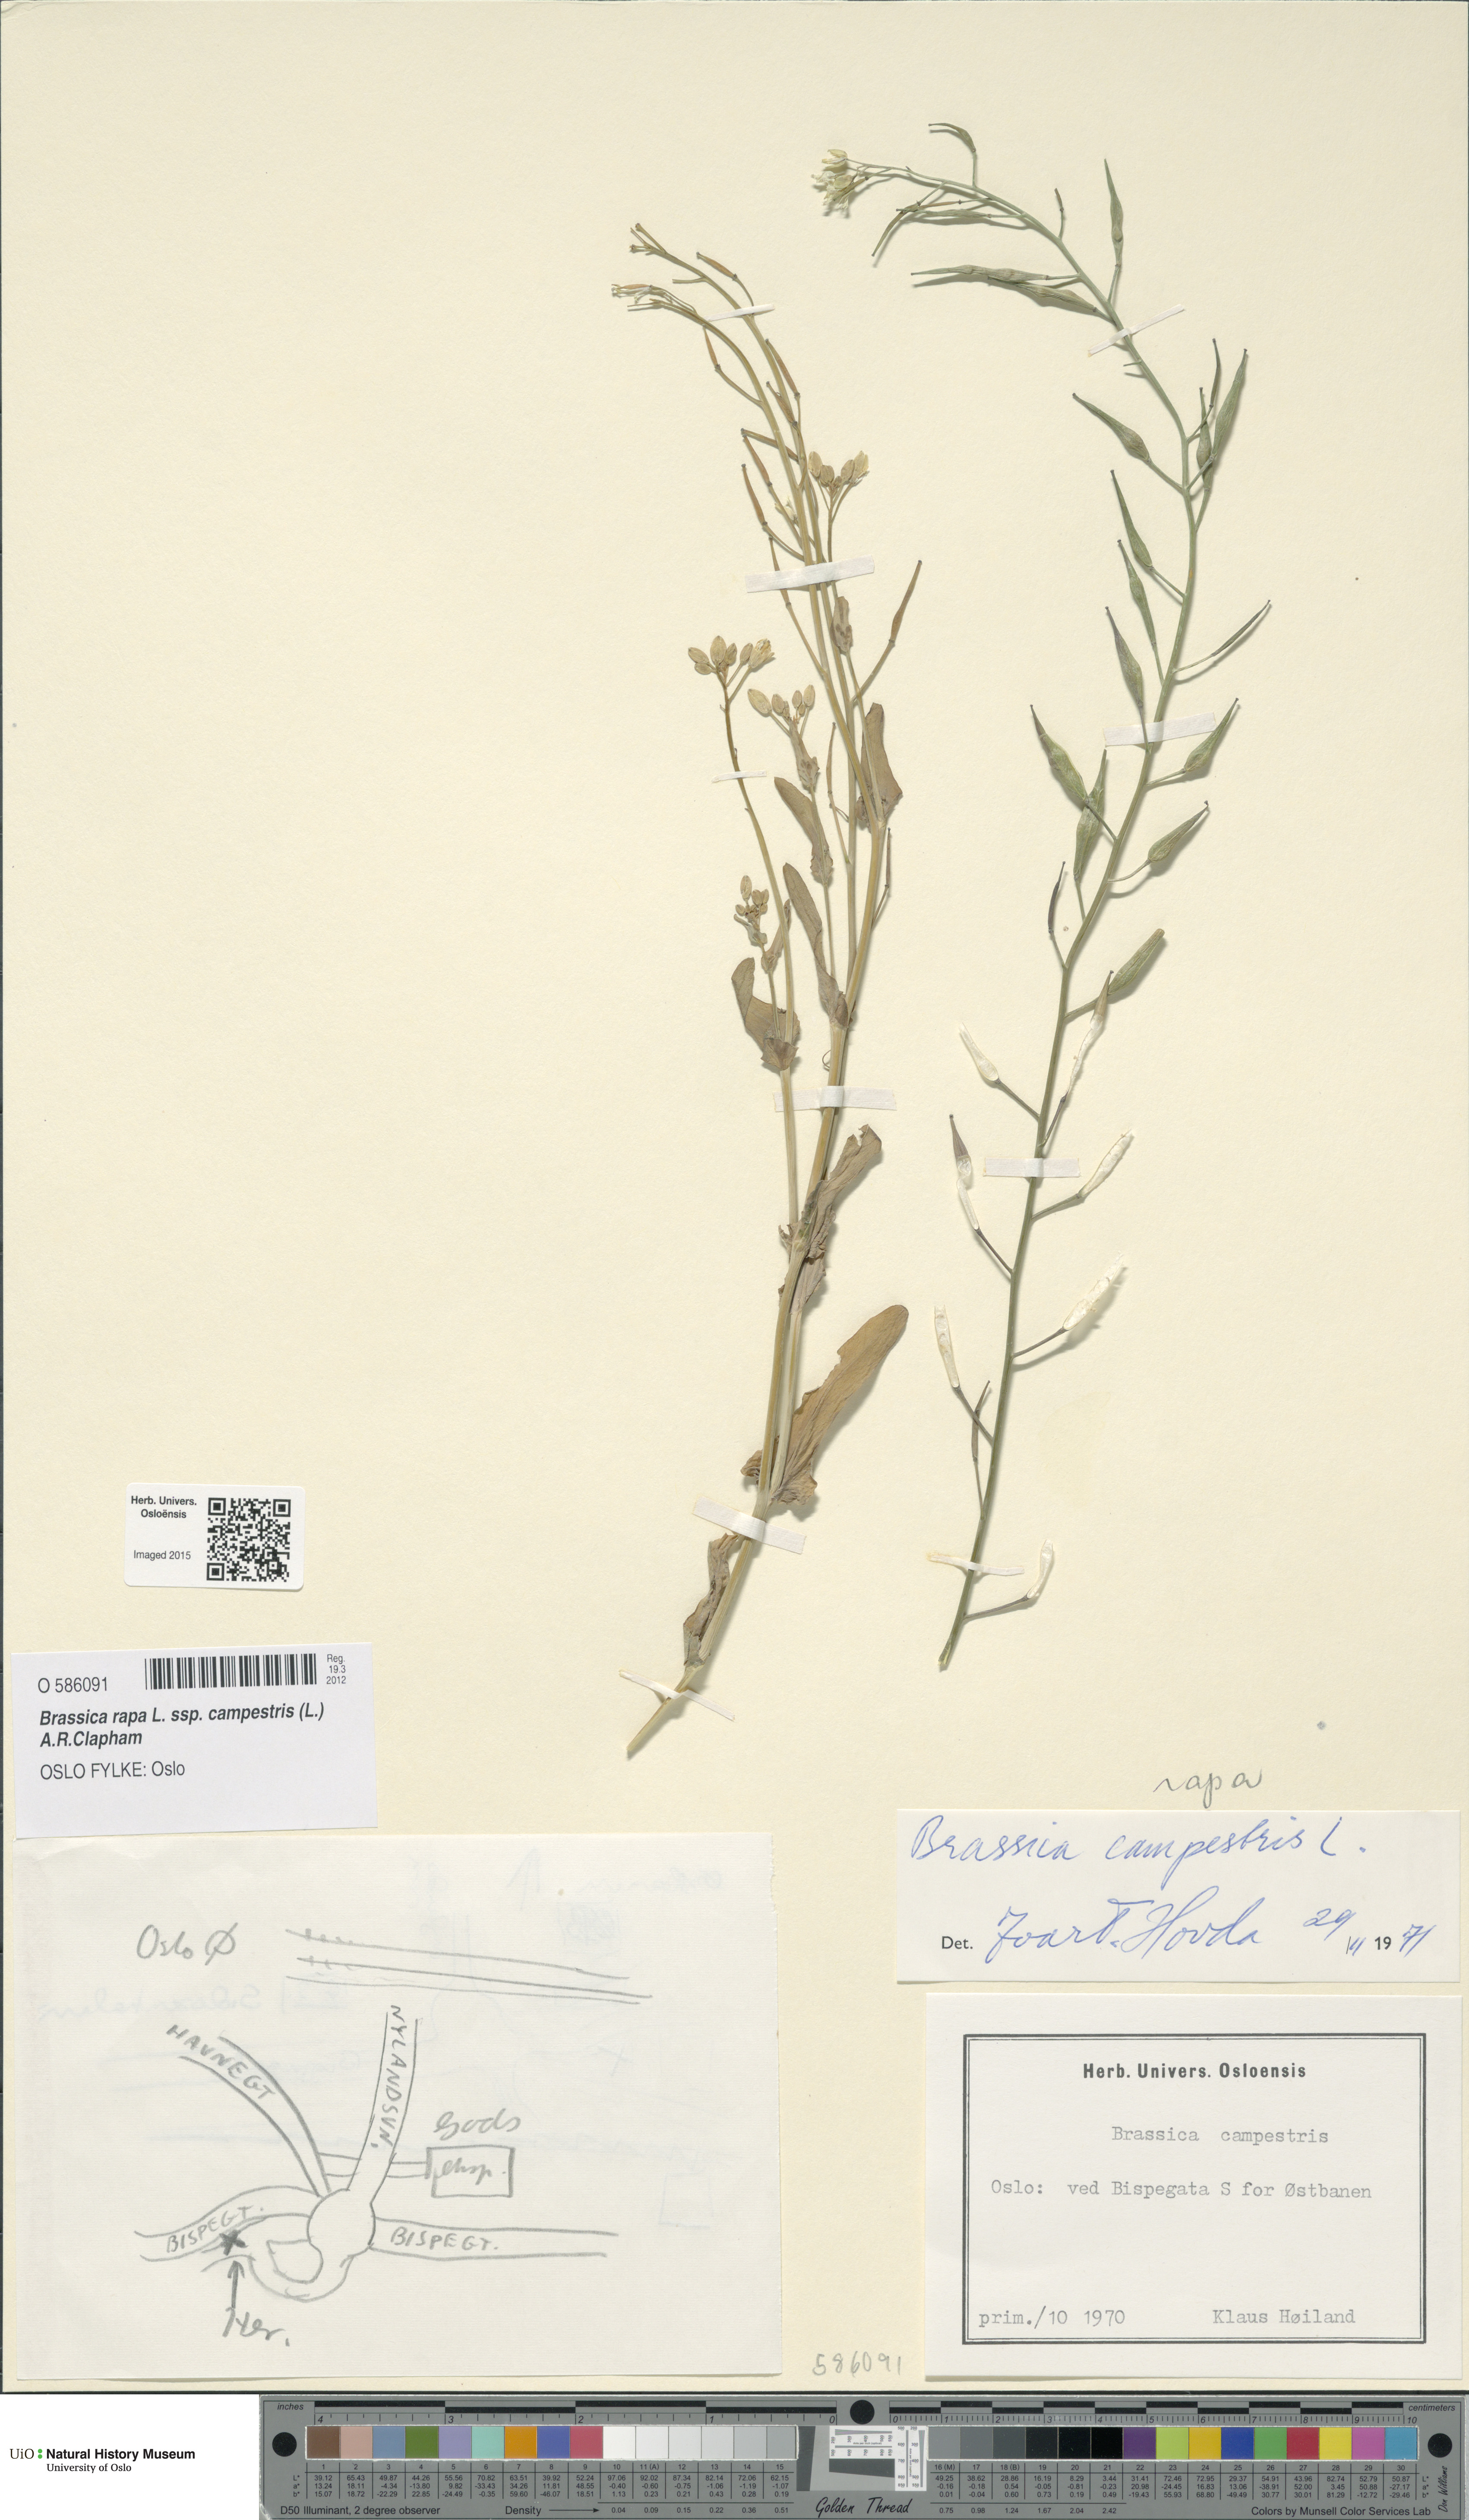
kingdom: Plantae
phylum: Tracheophyta
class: Magnoliopsida
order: Brassicales
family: Brassicaceae
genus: Brassica
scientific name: Brassica rapa
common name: Field mustard
